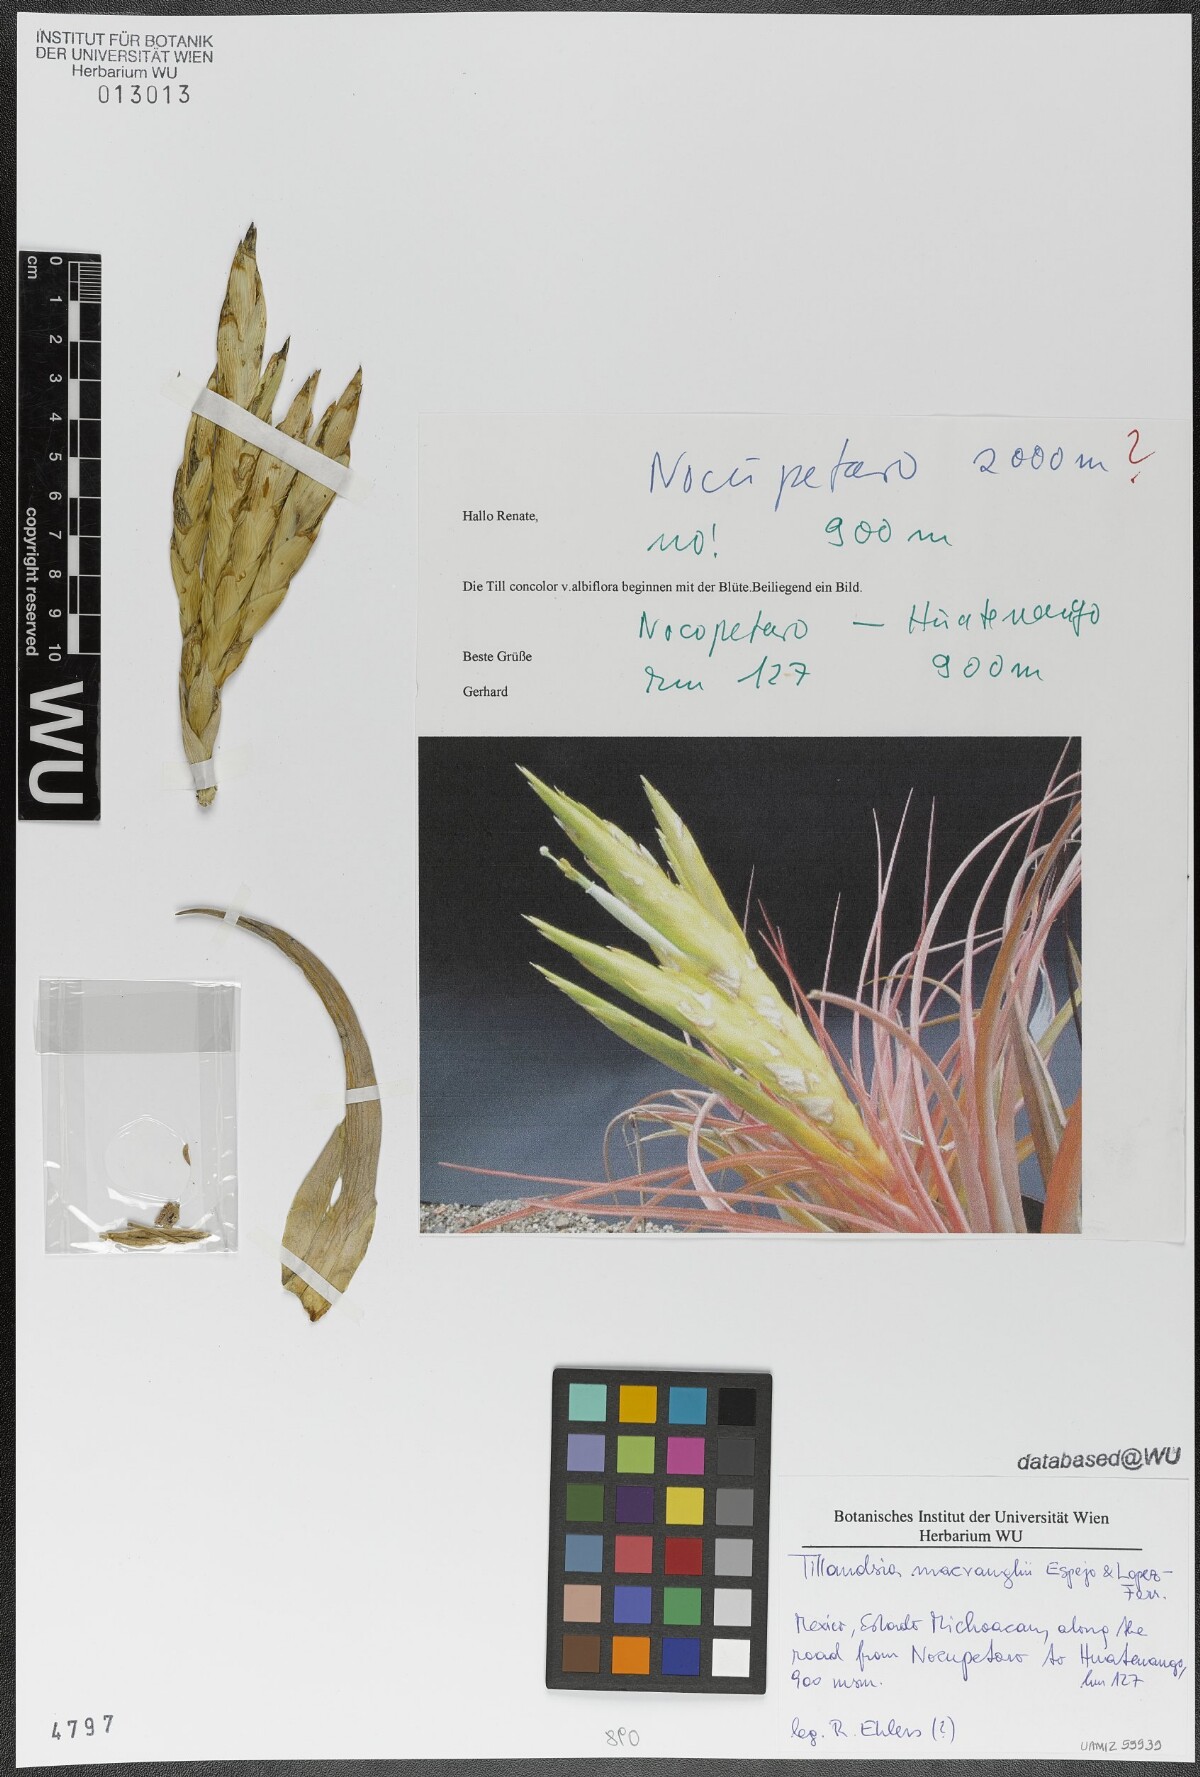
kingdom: Plantae
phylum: Tracheophyta
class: Liliopsida
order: Poales
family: Bromeliaceae
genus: Tillandsia
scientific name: Tillandsia macvaughii
